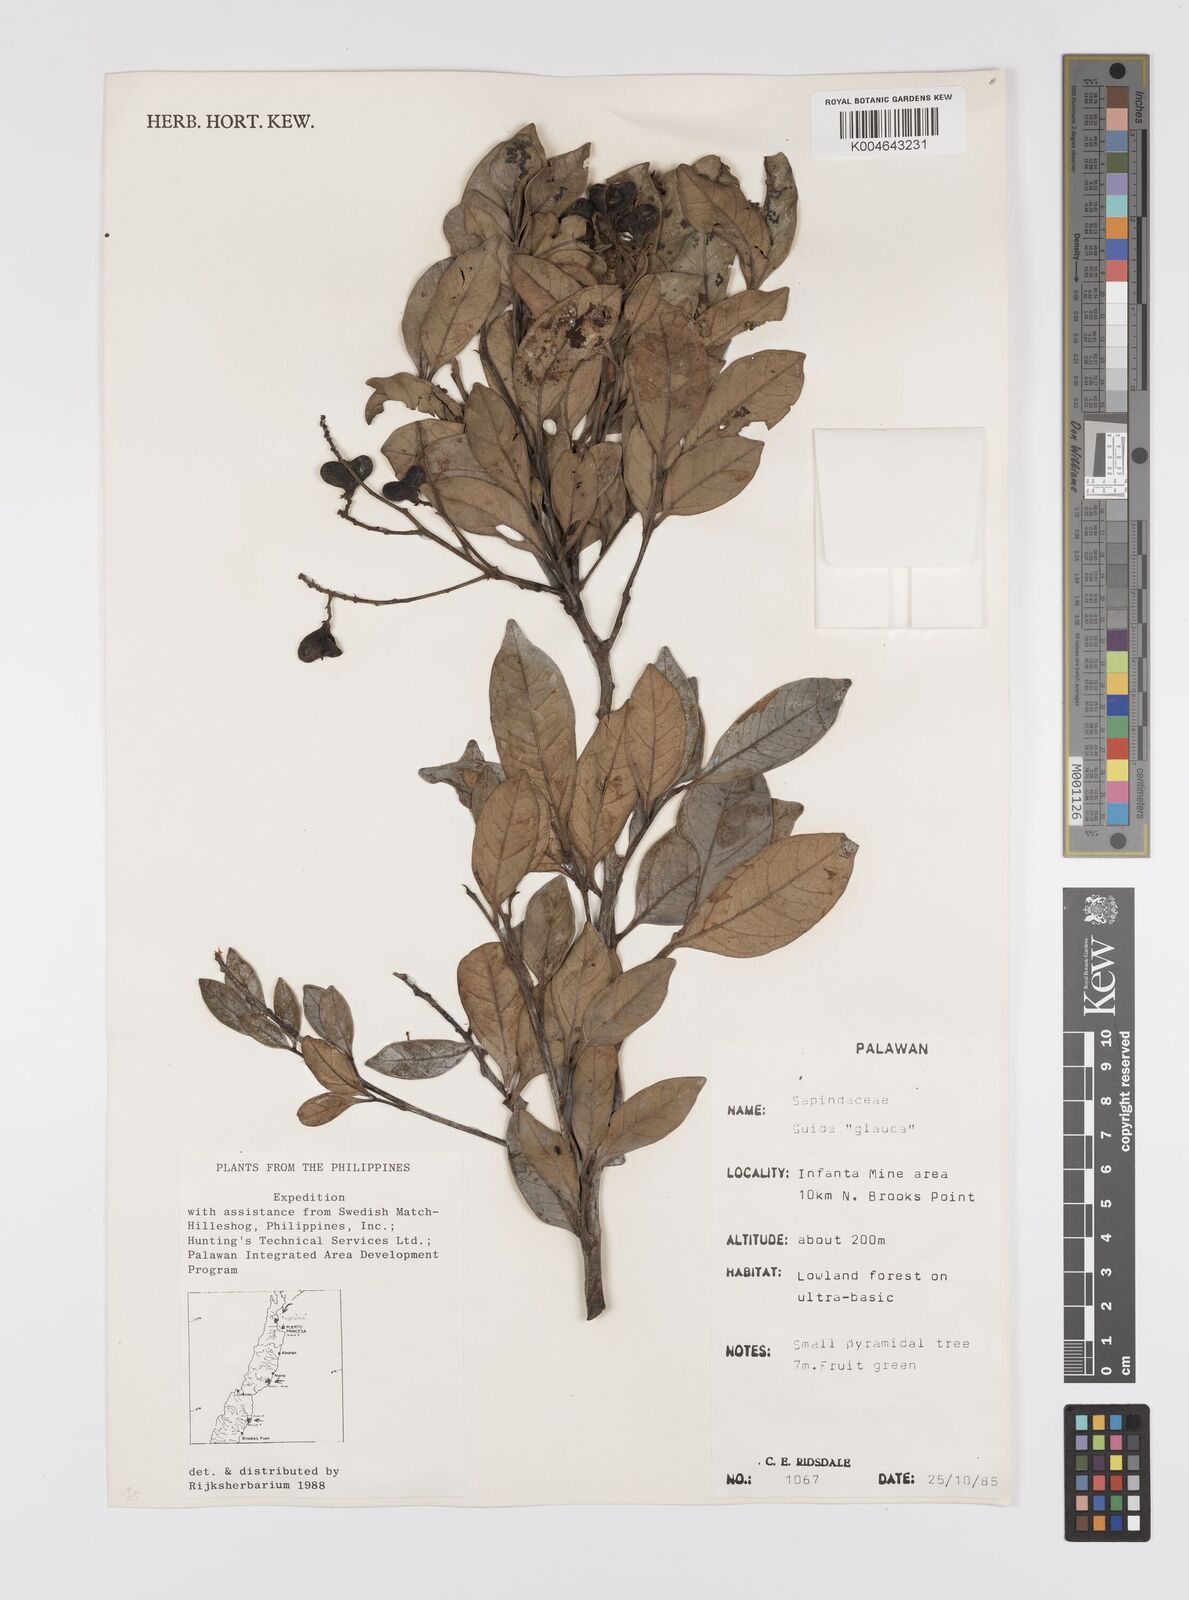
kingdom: Plantae
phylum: Tracheophyta
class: Magnoliopsida
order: Sapindales
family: Sapindaceae
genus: Guioa
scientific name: Guioa glauca
